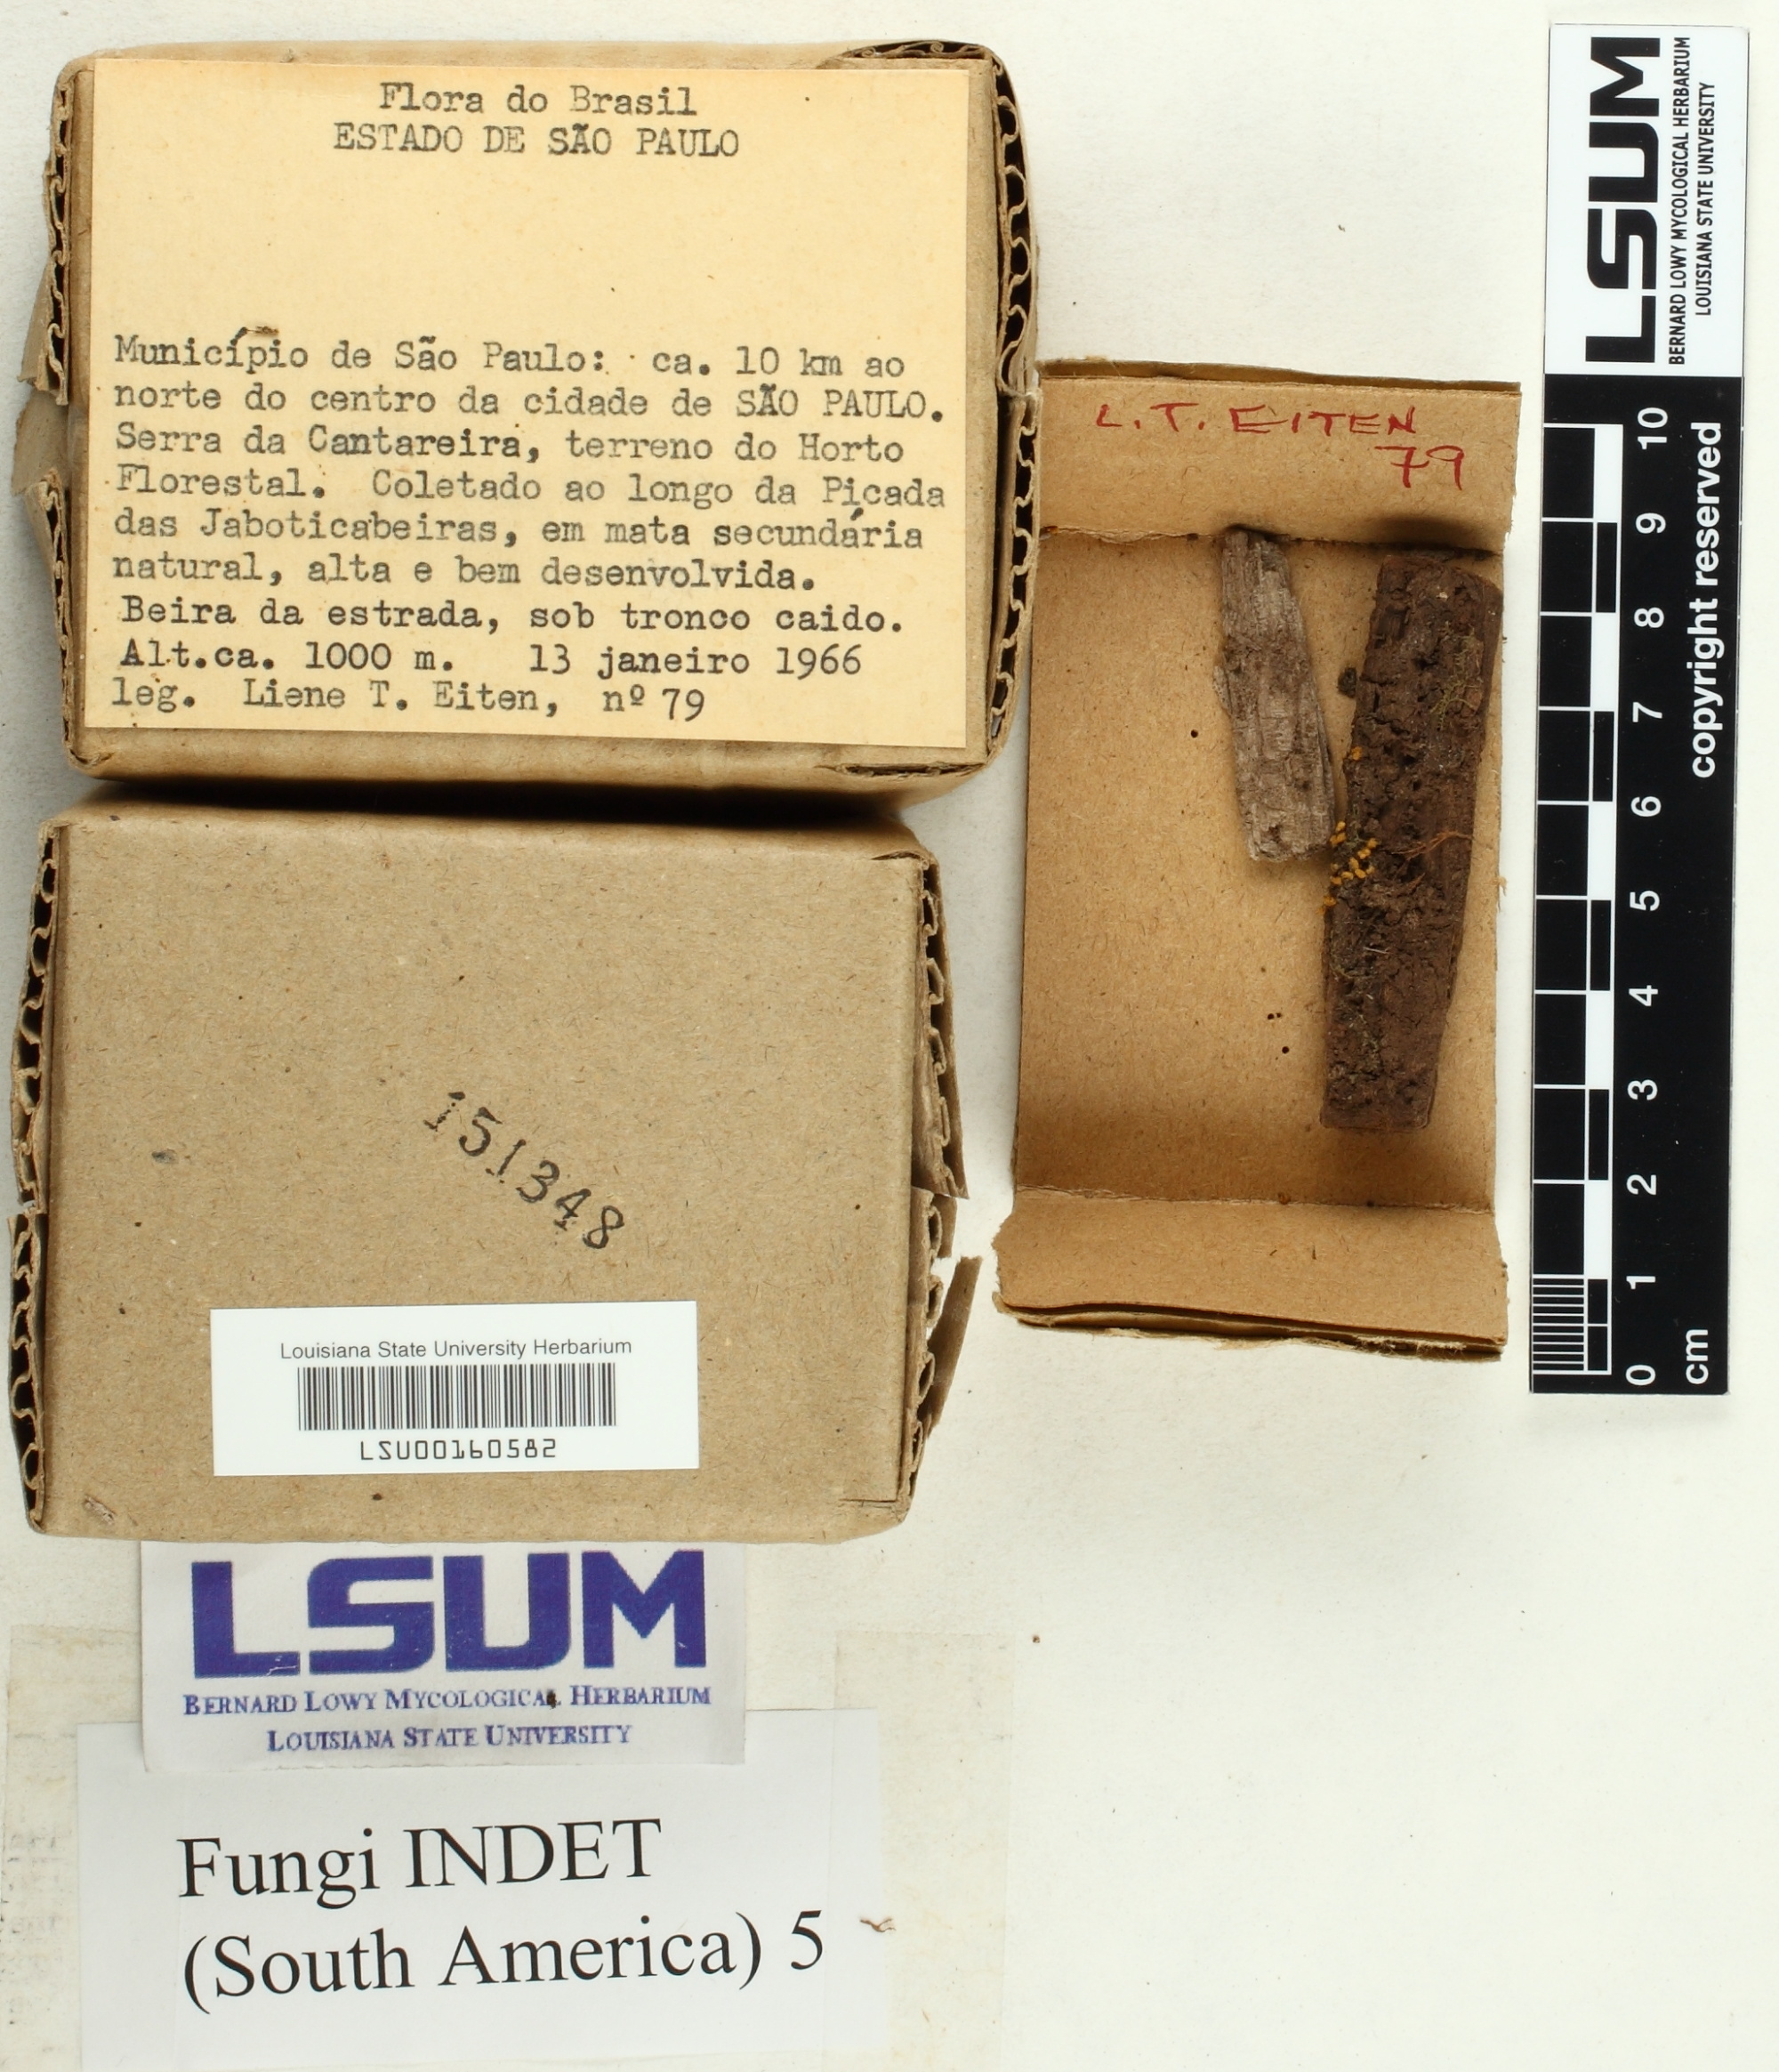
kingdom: Fungi
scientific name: Fungi
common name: Fungi
